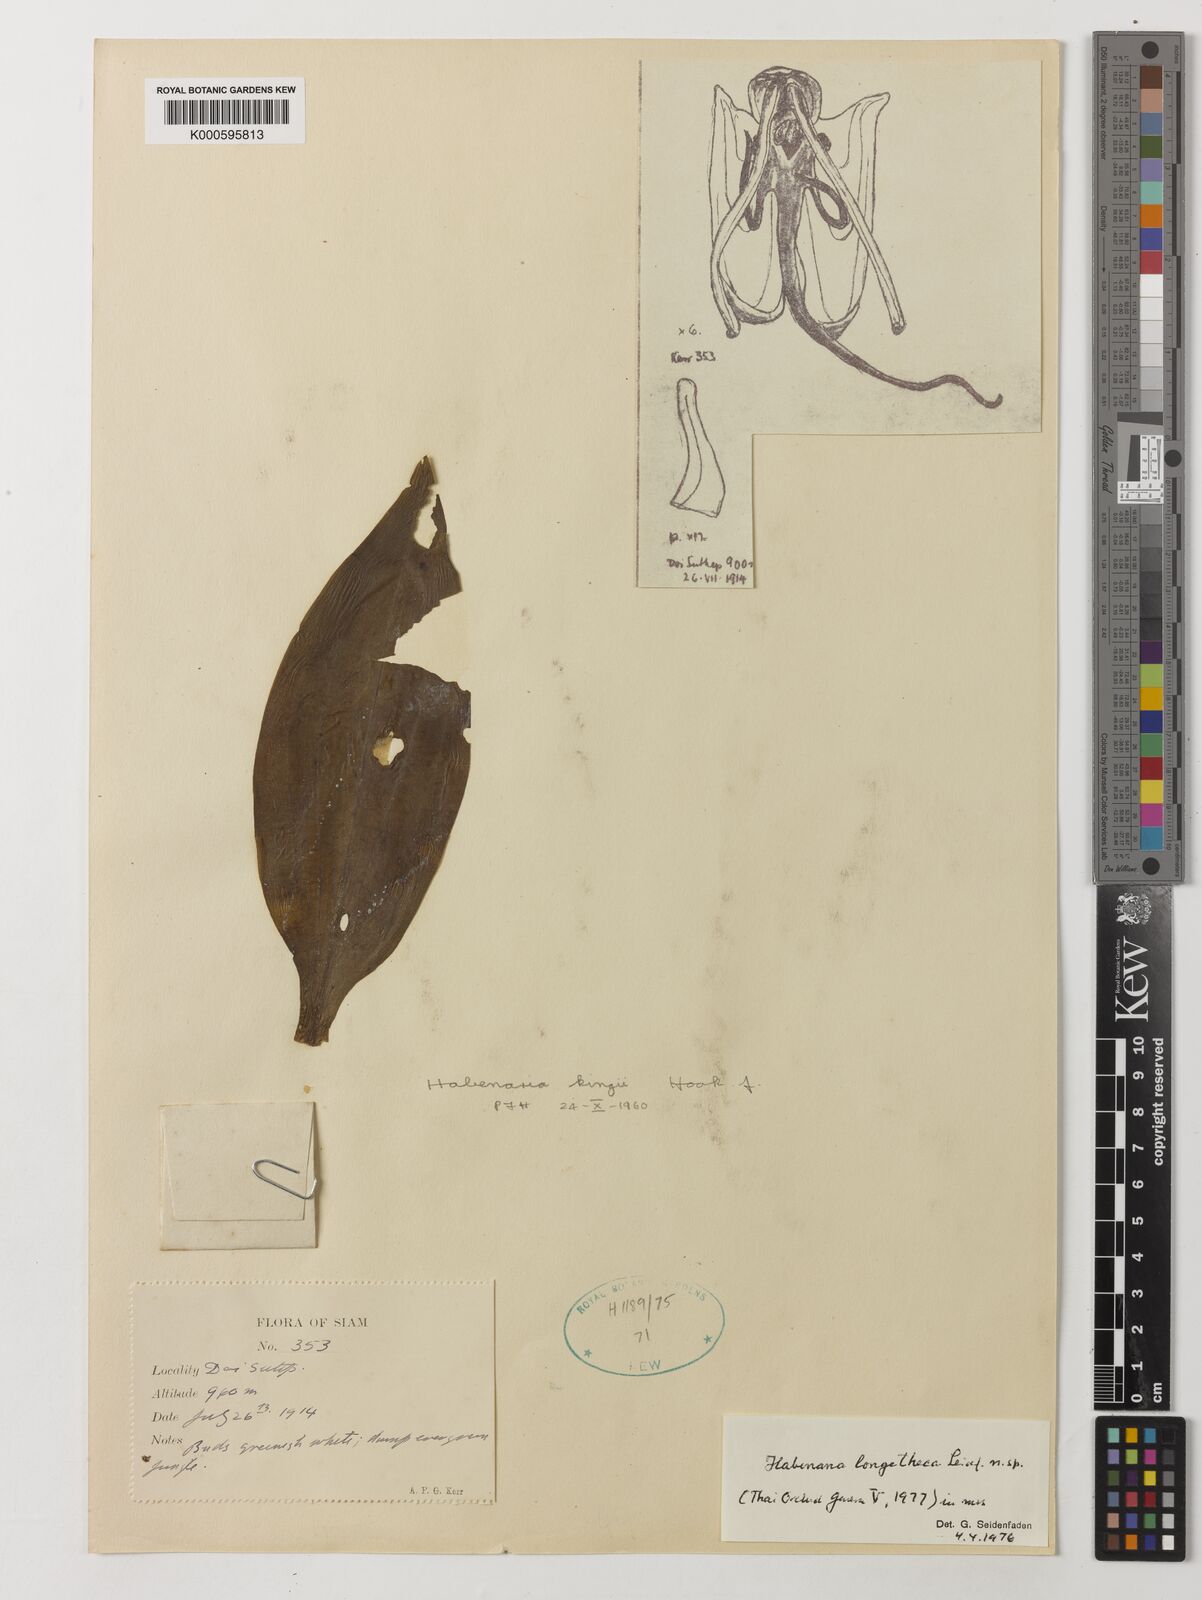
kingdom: Plantae
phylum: Tracheophyta
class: Liliopsida
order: Asparagales
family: Orchidaceae
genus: Habenaria
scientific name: Habenaria longitheca
